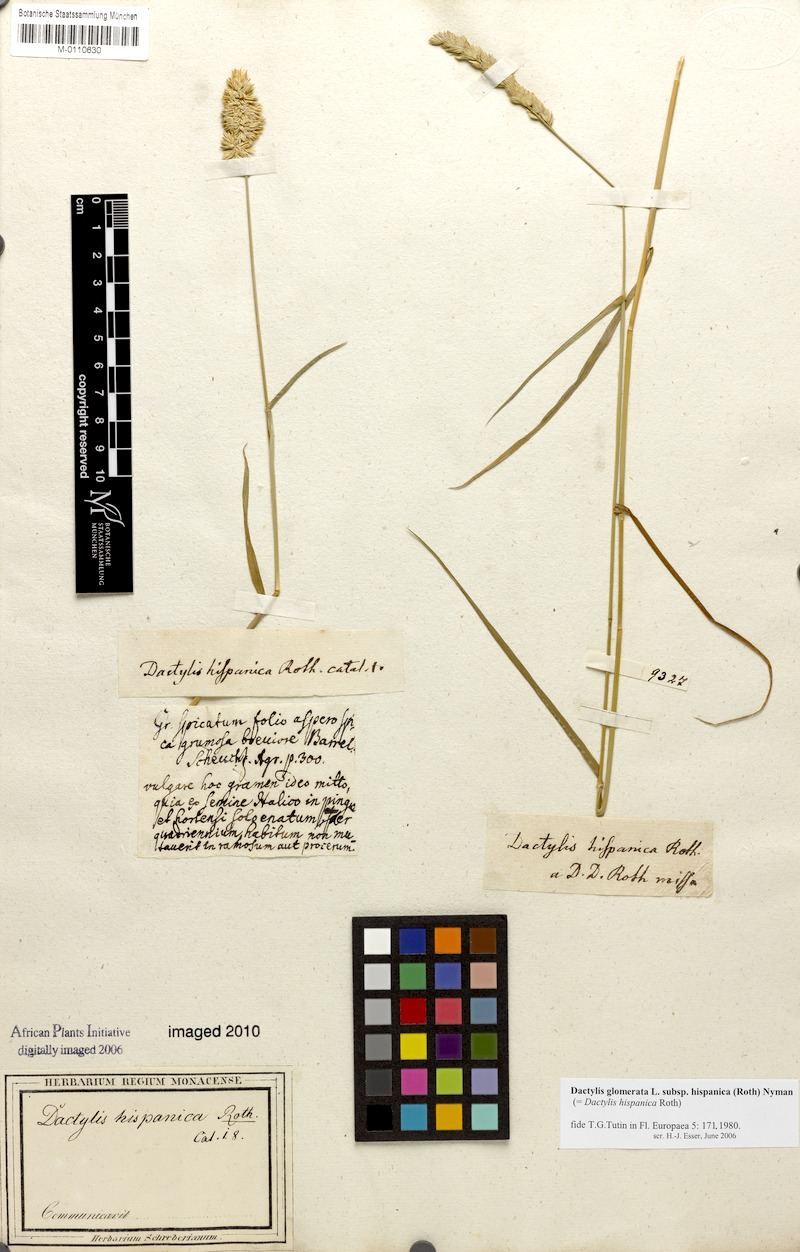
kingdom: Plantae
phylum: Tracheophyta
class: Liliopsida
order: Poales
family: Poaceae
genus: Dactylis
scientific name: Dactylis glomerata
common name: Orchardgrass
